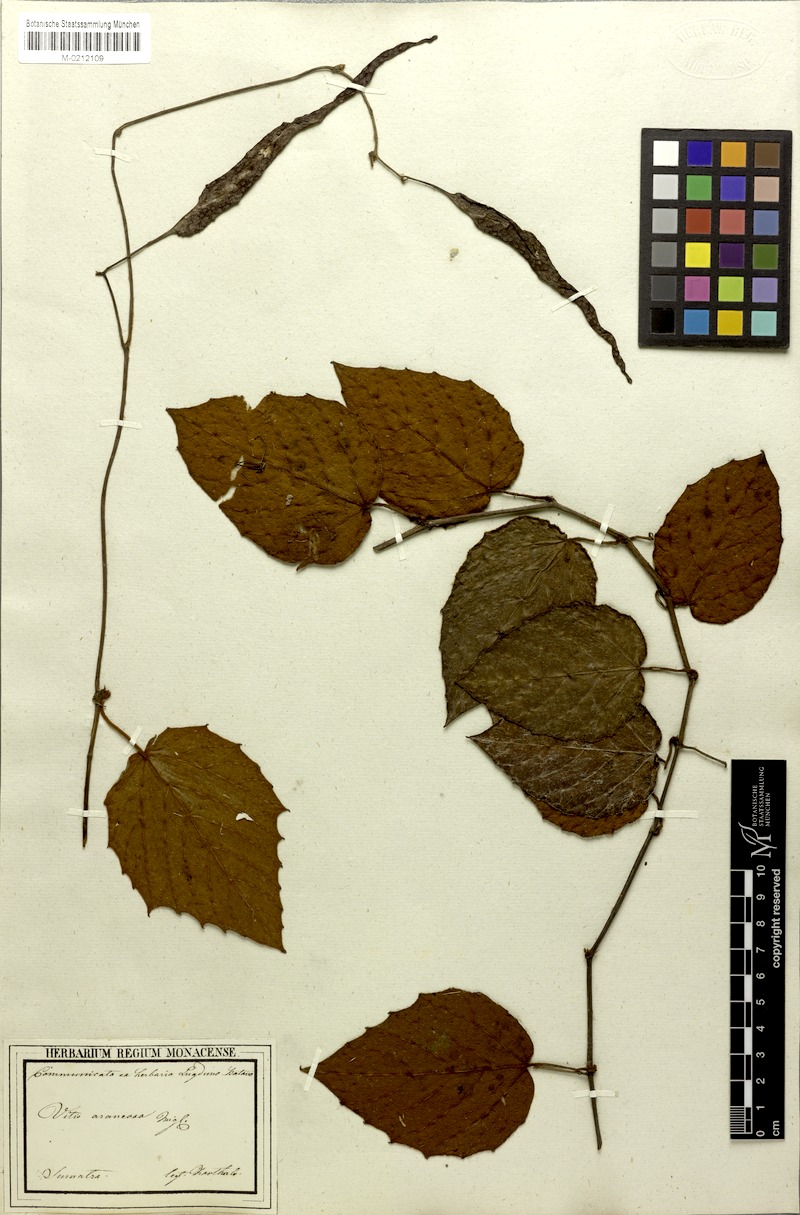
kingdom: Plantae
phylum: Tracheophyta
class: Magnoliopsida
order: Vitales
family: Vitaceae
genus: Pterisanthes
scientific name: Pterisanthes miquelii
